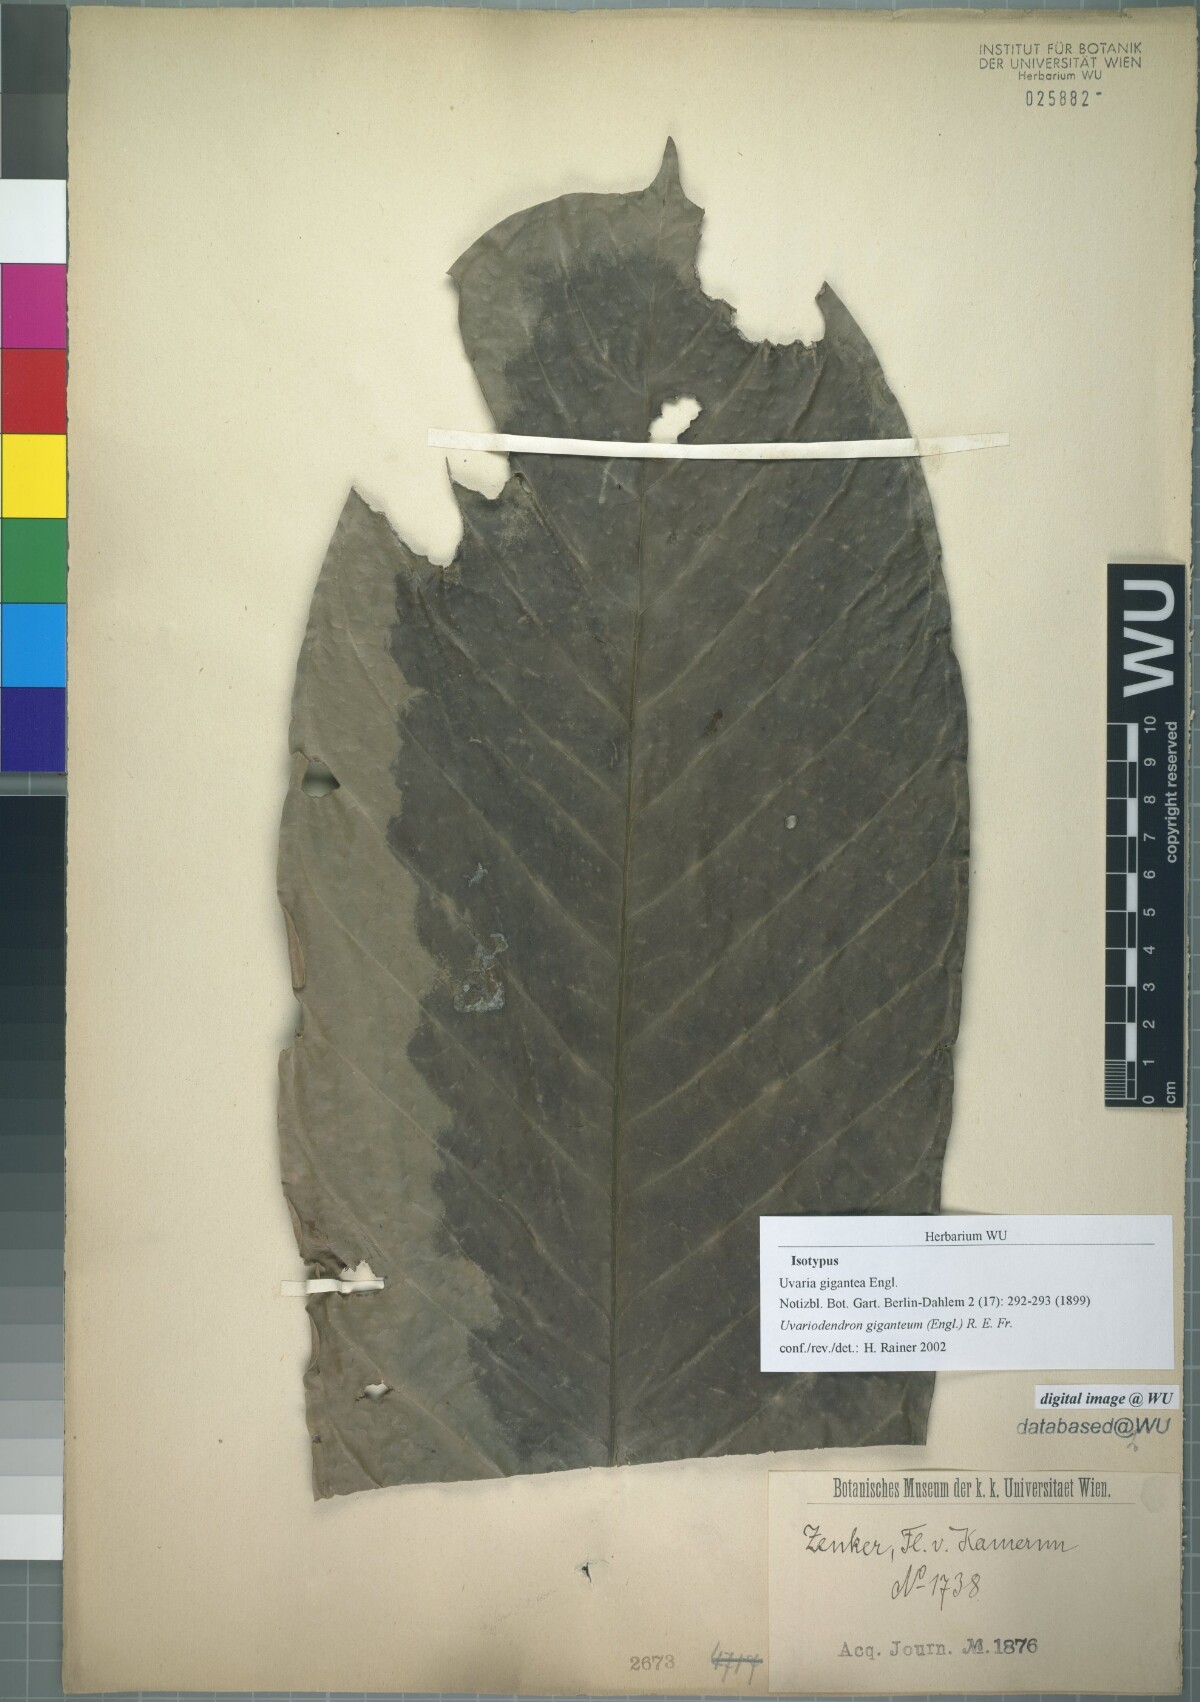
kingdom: Plantae
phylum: Tracheophyta
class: Magnoliopsida
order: Magnoliales
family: Annonaceae
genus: Uvariodendron
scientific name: Uvariodendron giganteum
